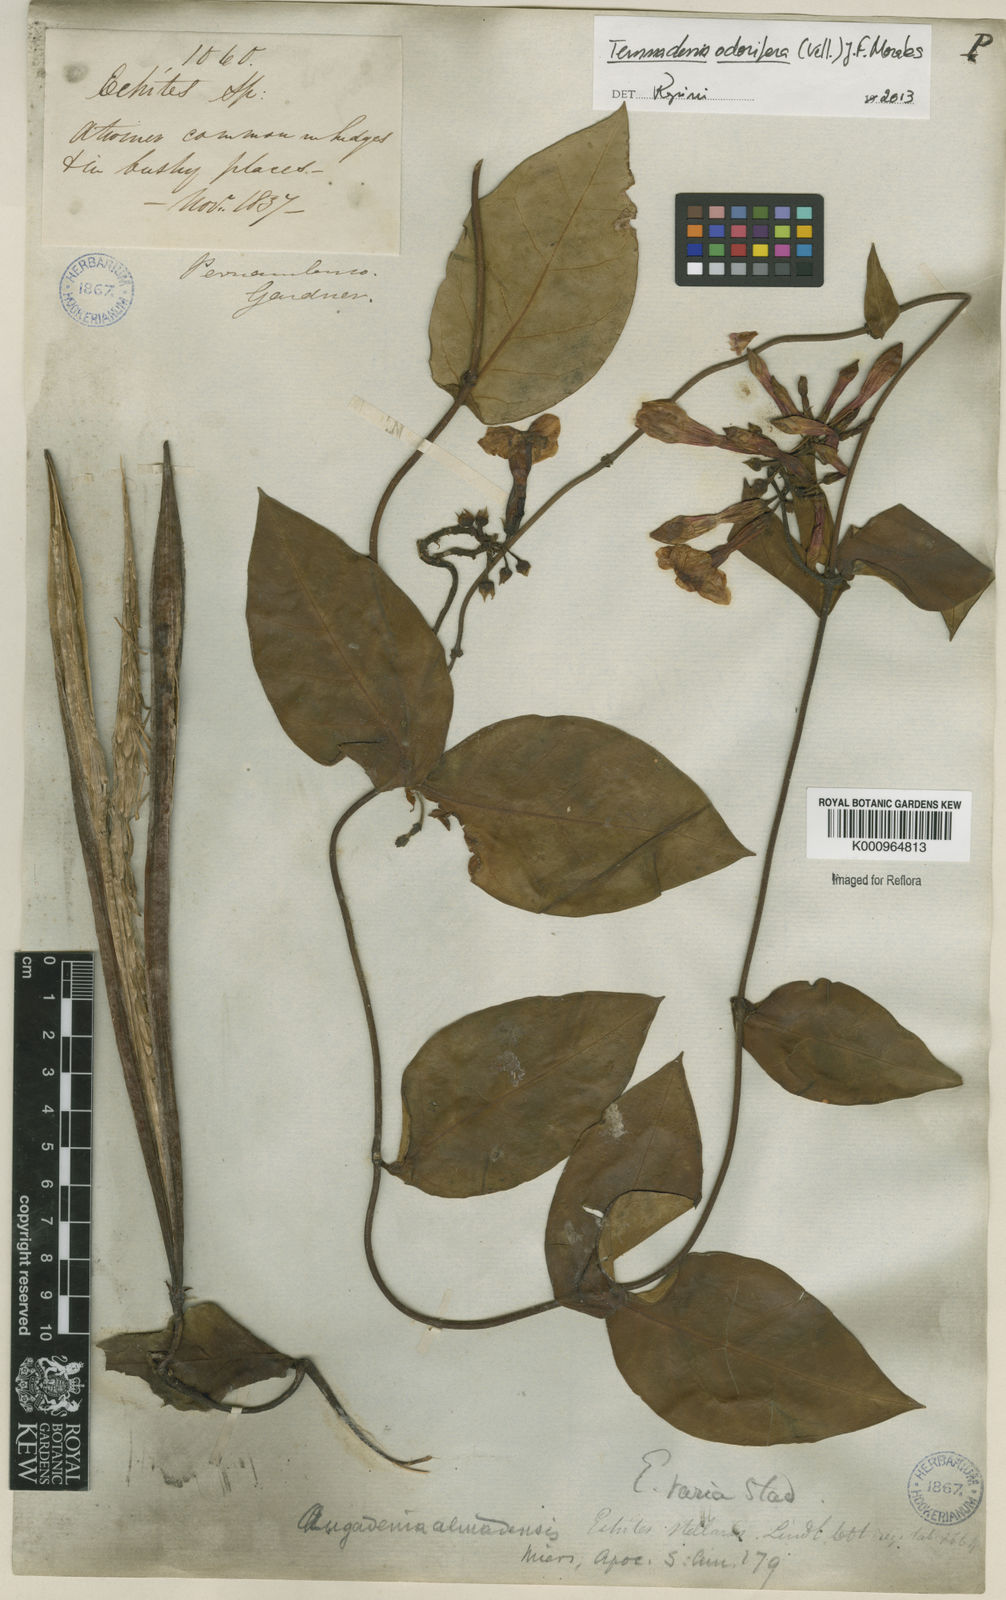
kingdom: Plantae
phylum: Tracheophyta
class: Magnoliopsida
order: Gentianales
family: Apocynaceae
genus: Temnadenia
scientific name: Temnadenia odorifera
